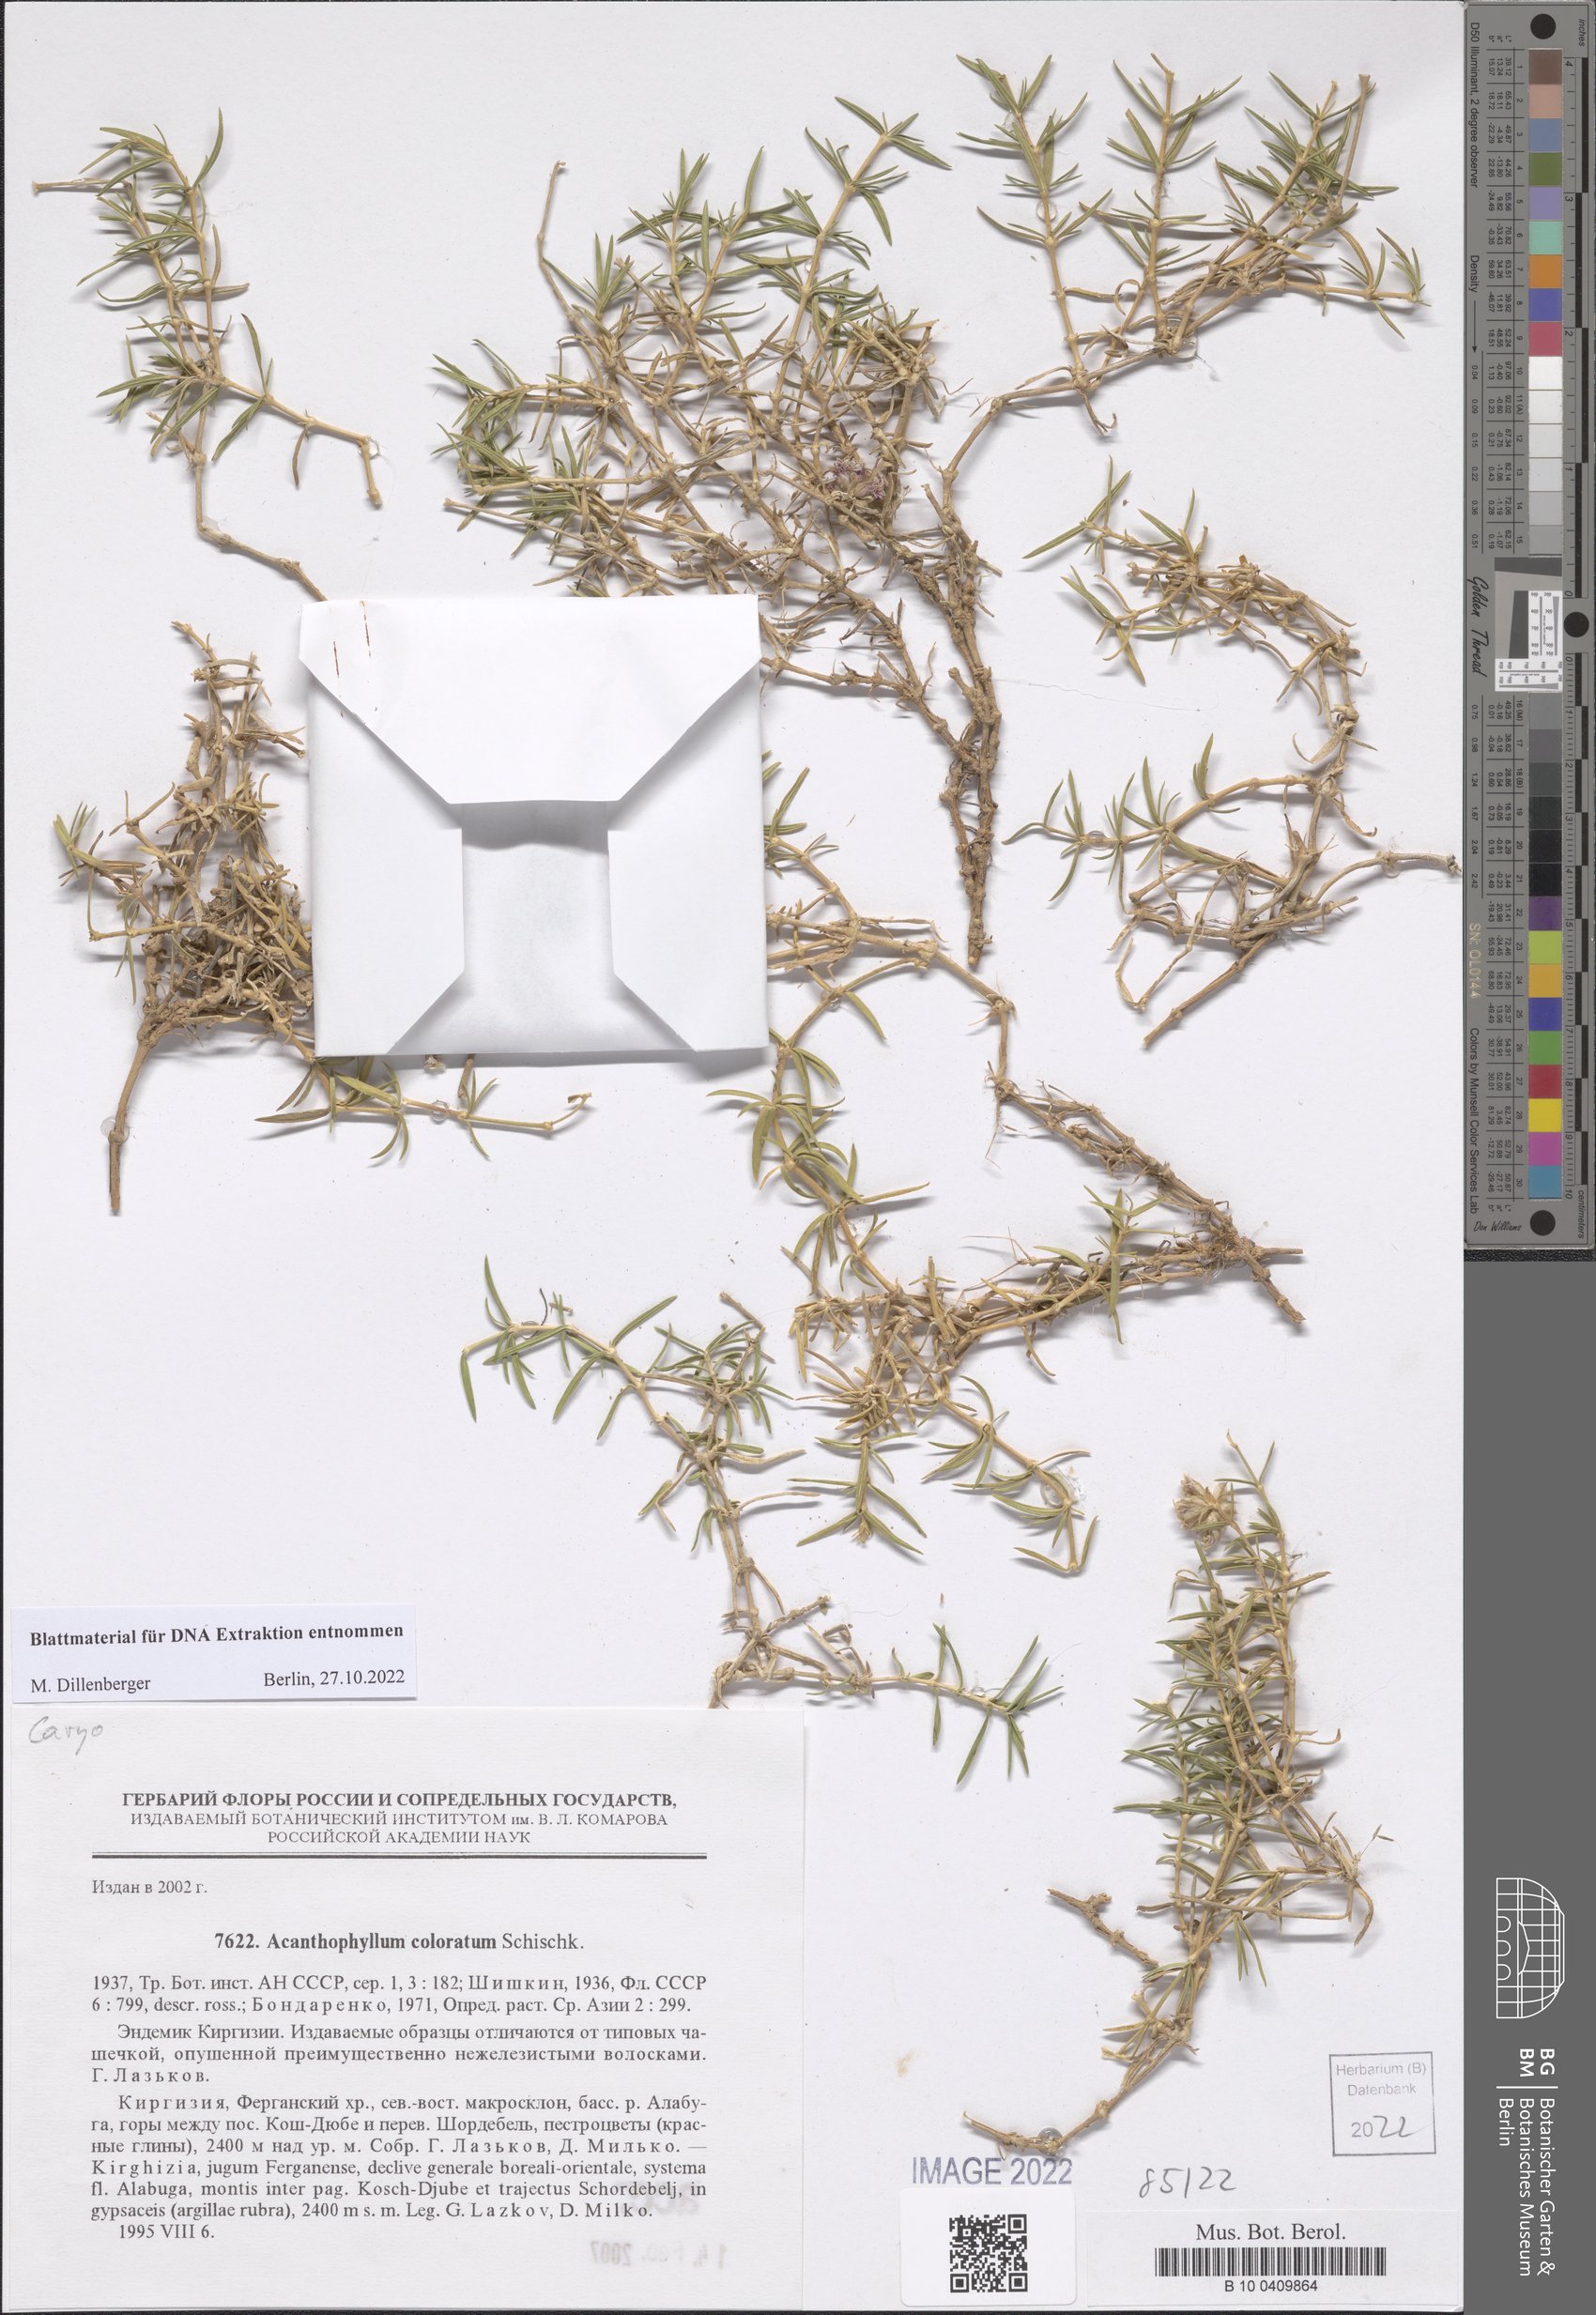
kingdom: Plantae
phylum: Tracheophyta
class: Magnoliopsida
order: Caryophyllales
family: Caryophyllaceae
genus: Acanthophyllum
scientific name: Acanthophyllum coloratum
